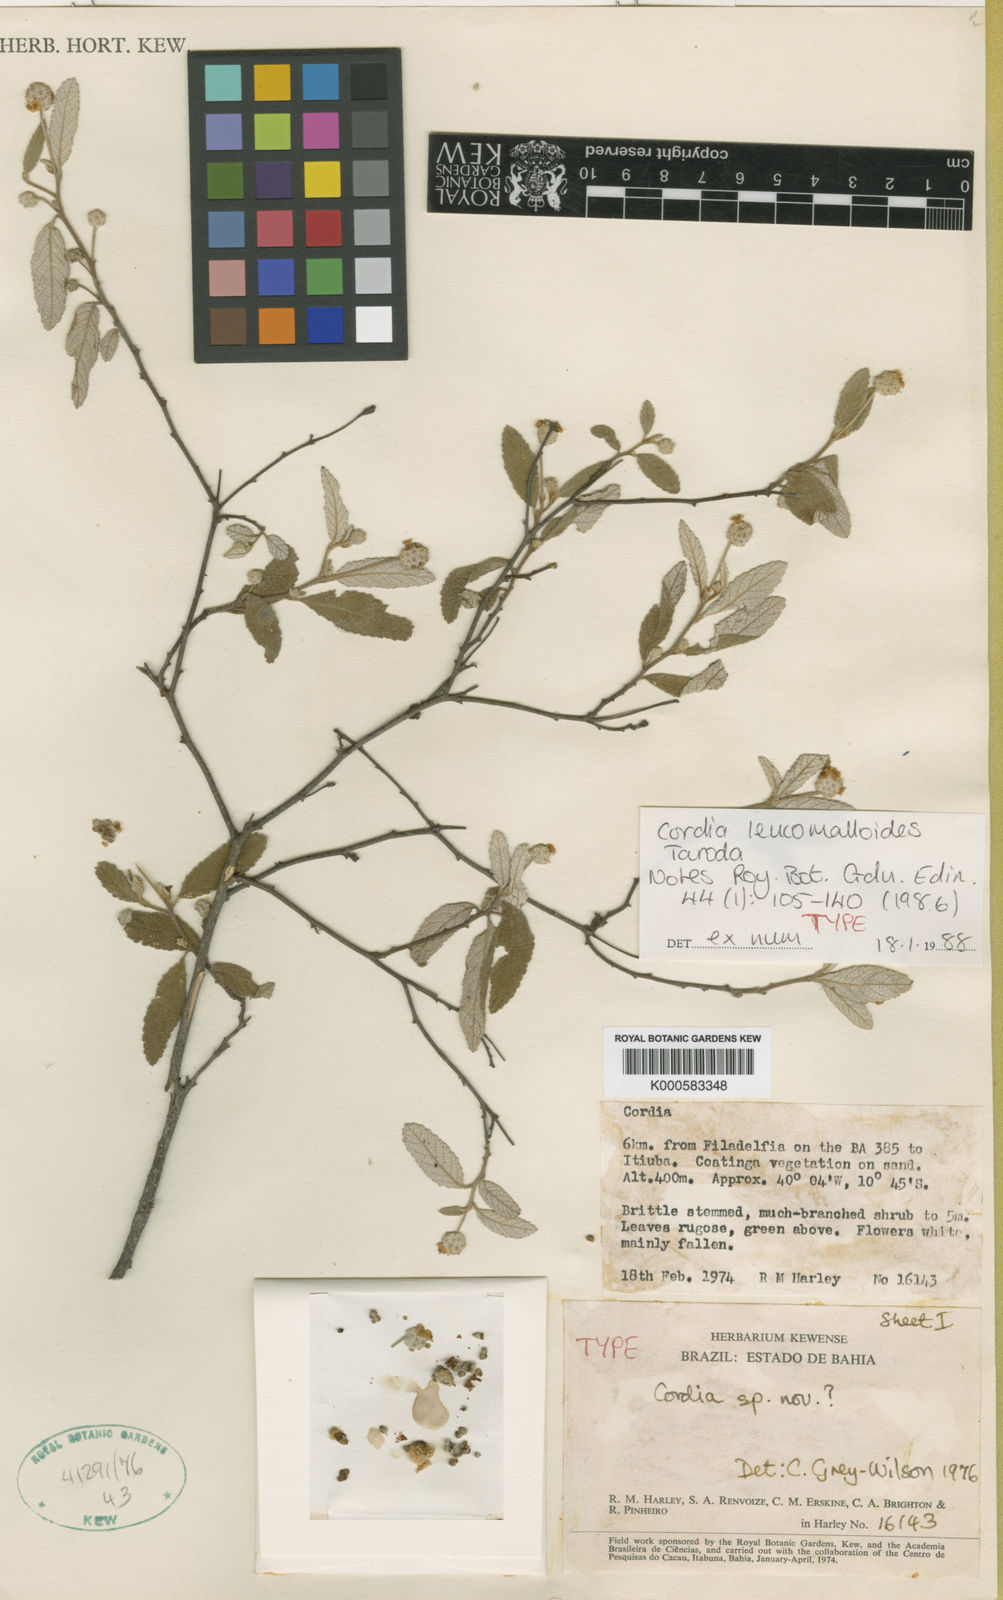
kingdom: Plantae
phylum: Tracheophyta
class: Magnoliopsida
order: Boraginales
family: Cordiaceae
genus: Varronia
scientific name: Varronia leucomalloides
